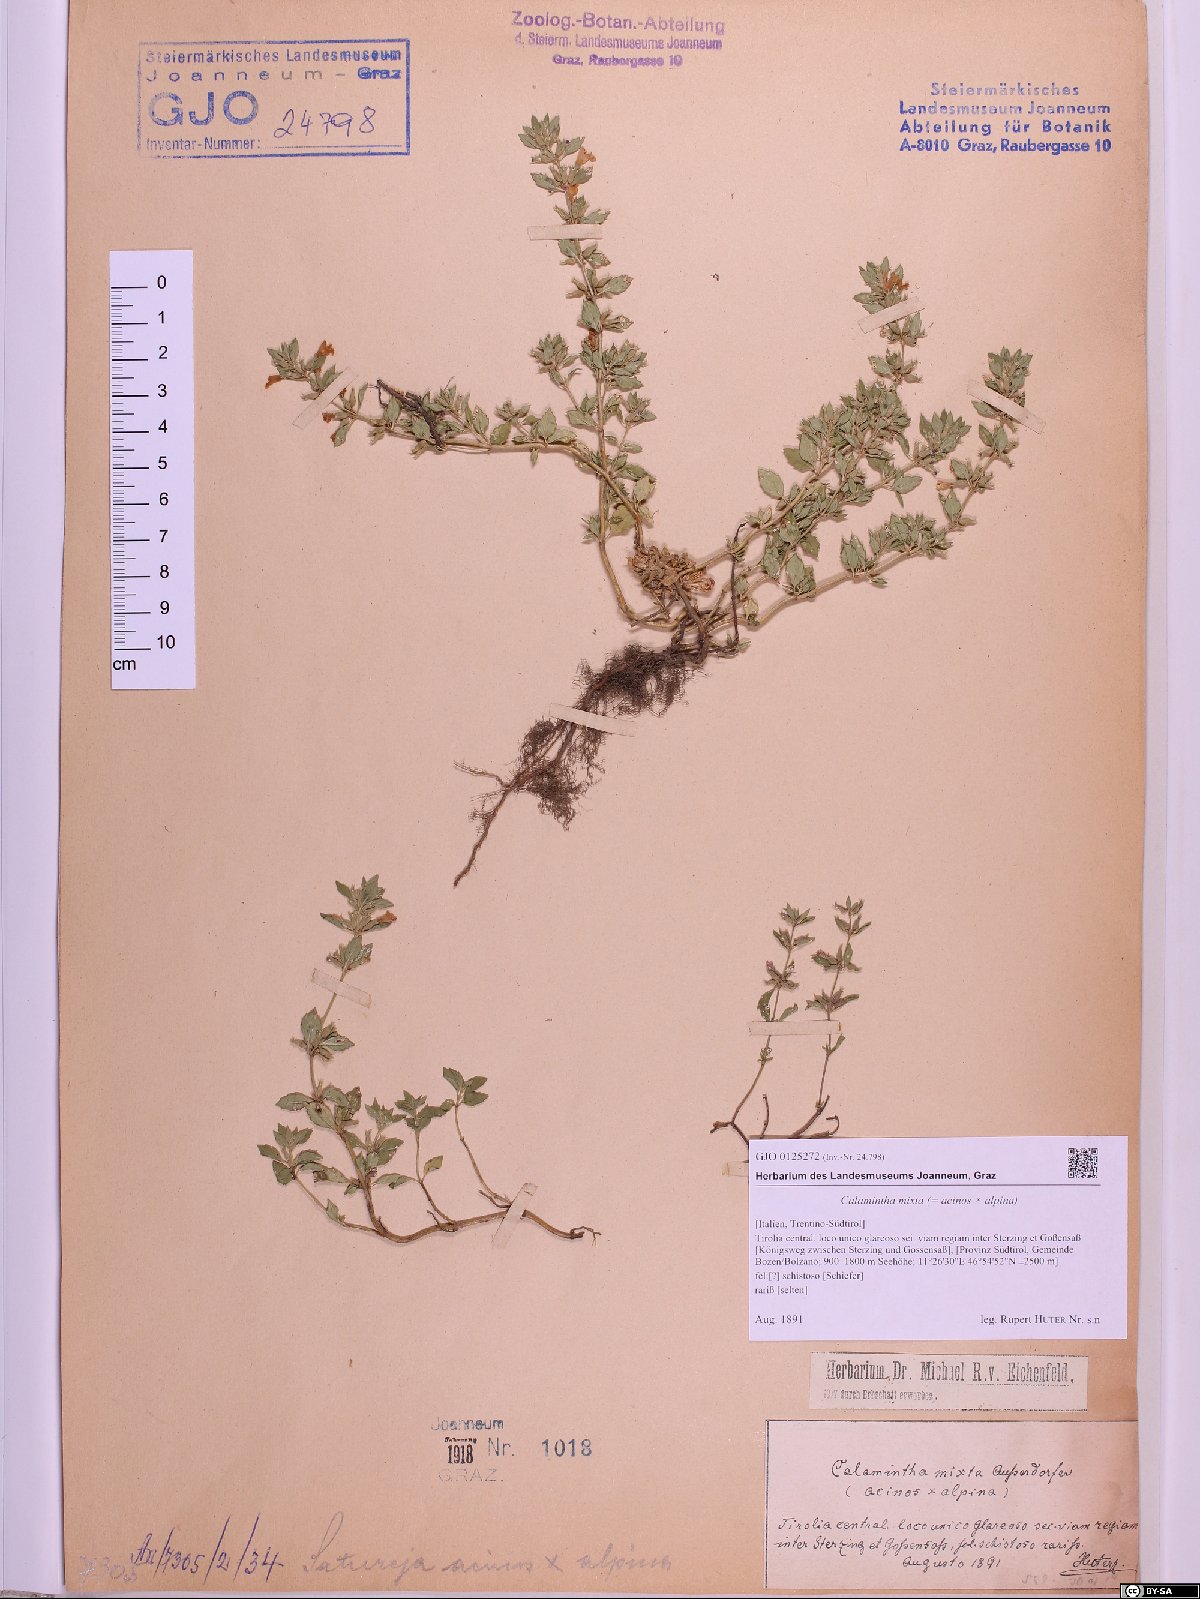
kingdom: Plantae
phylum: Tracheophyta
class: Magnoliopsida
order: Lamiales
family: Lamiaceae
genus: Clinopodium
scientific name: Clinopodium mixtum
